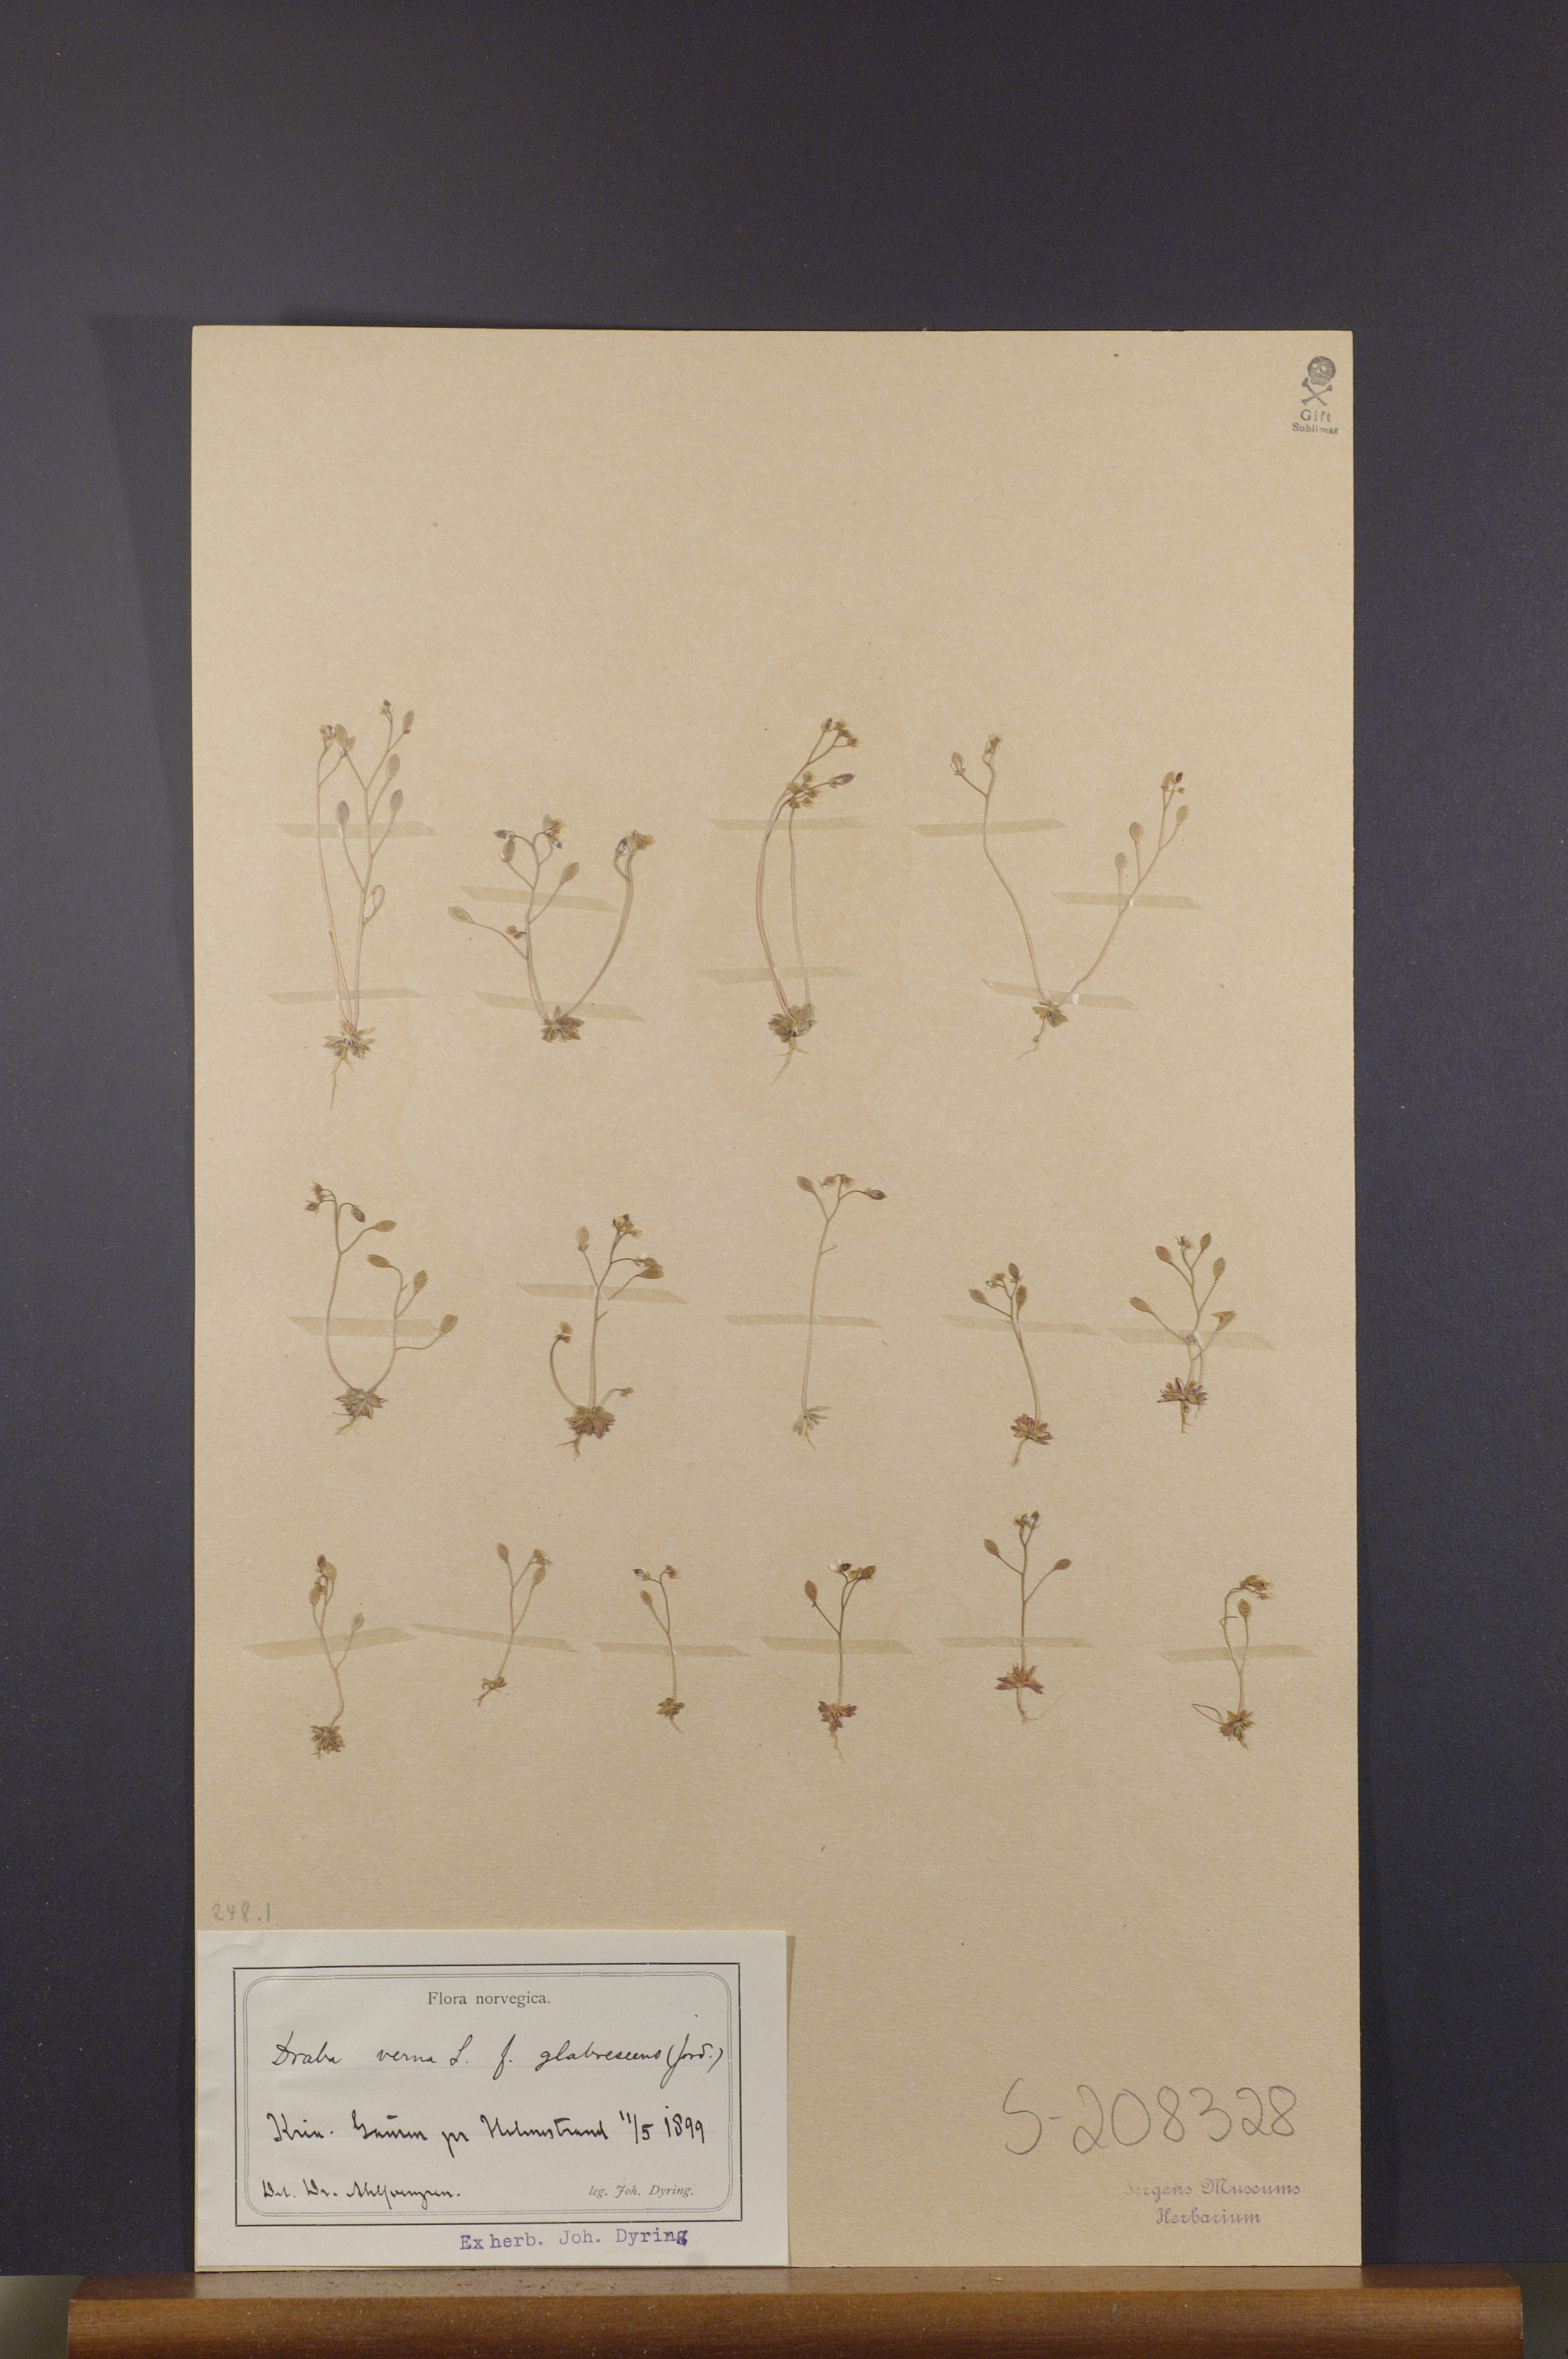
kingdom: Plantae
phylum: Tracheophyta
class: Magnoliopsida
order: Brassicales
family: Brassicaceae
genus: Draba
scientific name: Draba verna
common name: Spring draba
